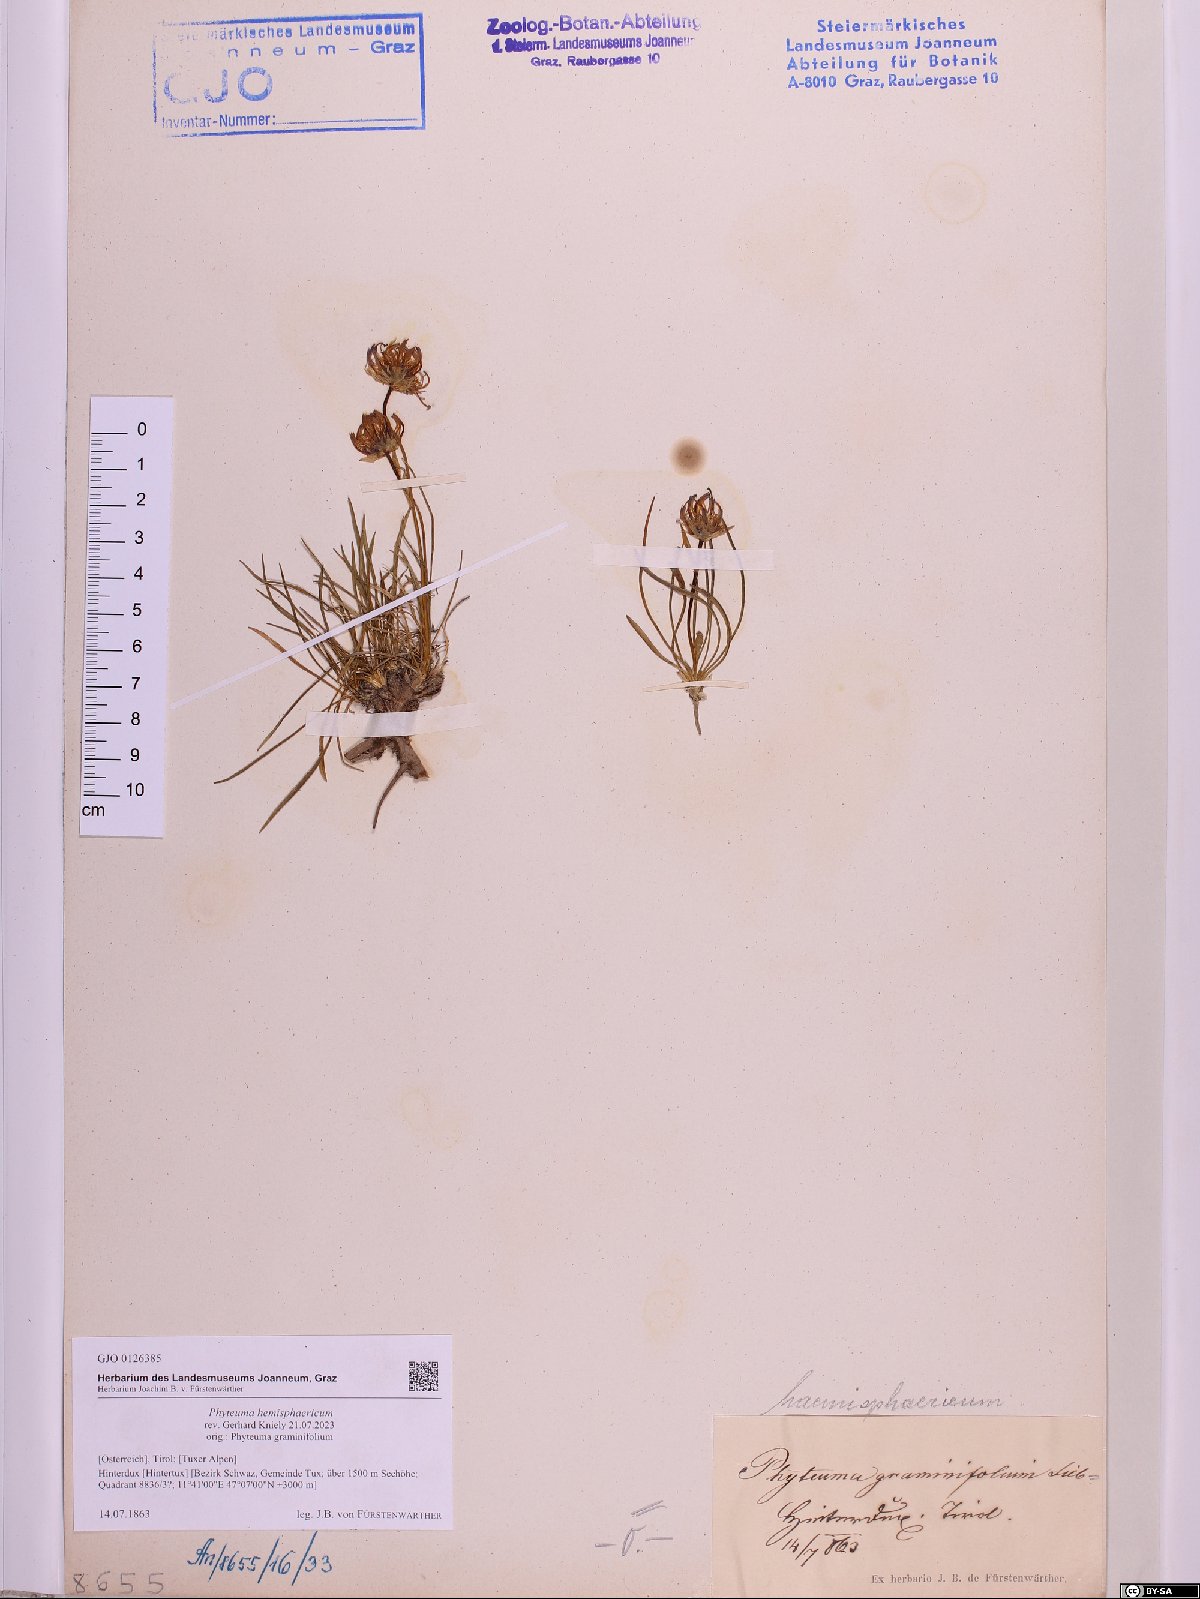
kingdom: Plantae
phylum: Tracheophyta
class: Magnoliopsida
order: Asterales
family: Campanulaceae
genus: Phyteuma
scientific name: Phyteuma hemisphaericum
